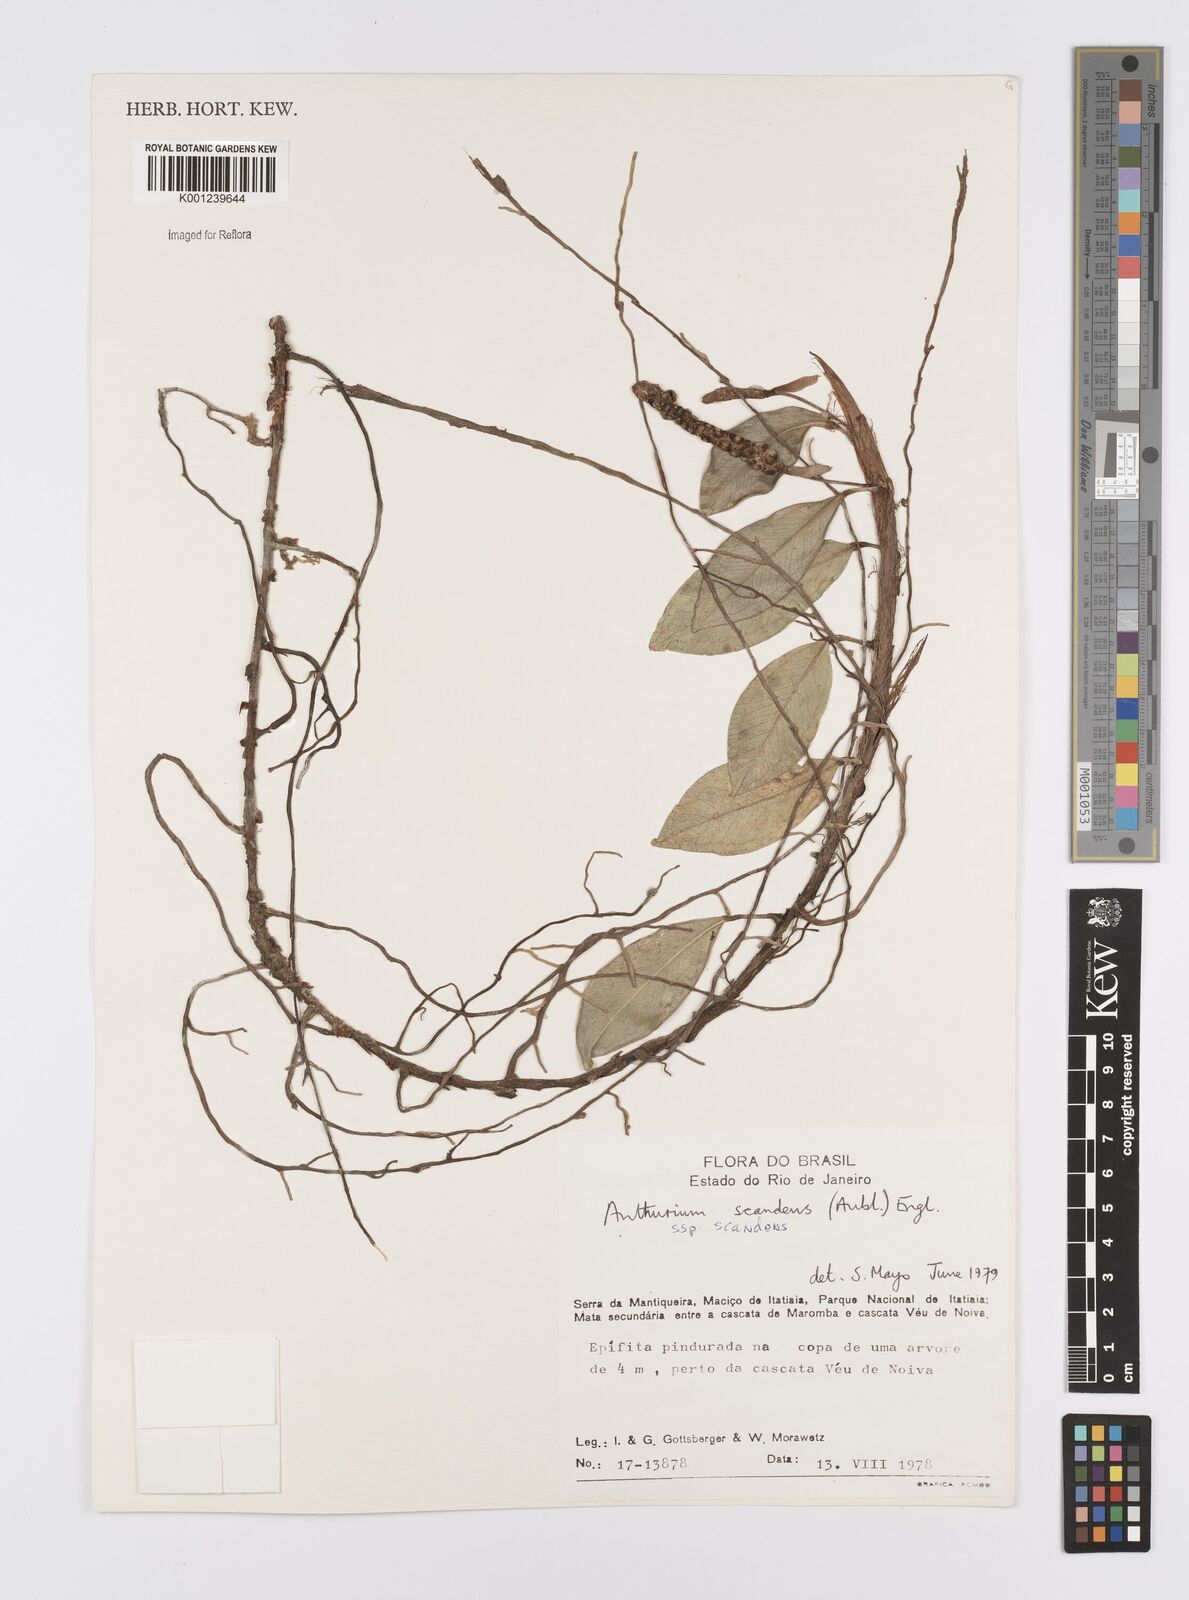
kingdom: Plantae
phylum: Tracheophyta
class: Liliopsida
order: Alismatales
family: Araceae
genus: Anthurium
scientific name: Anthurium scandens
